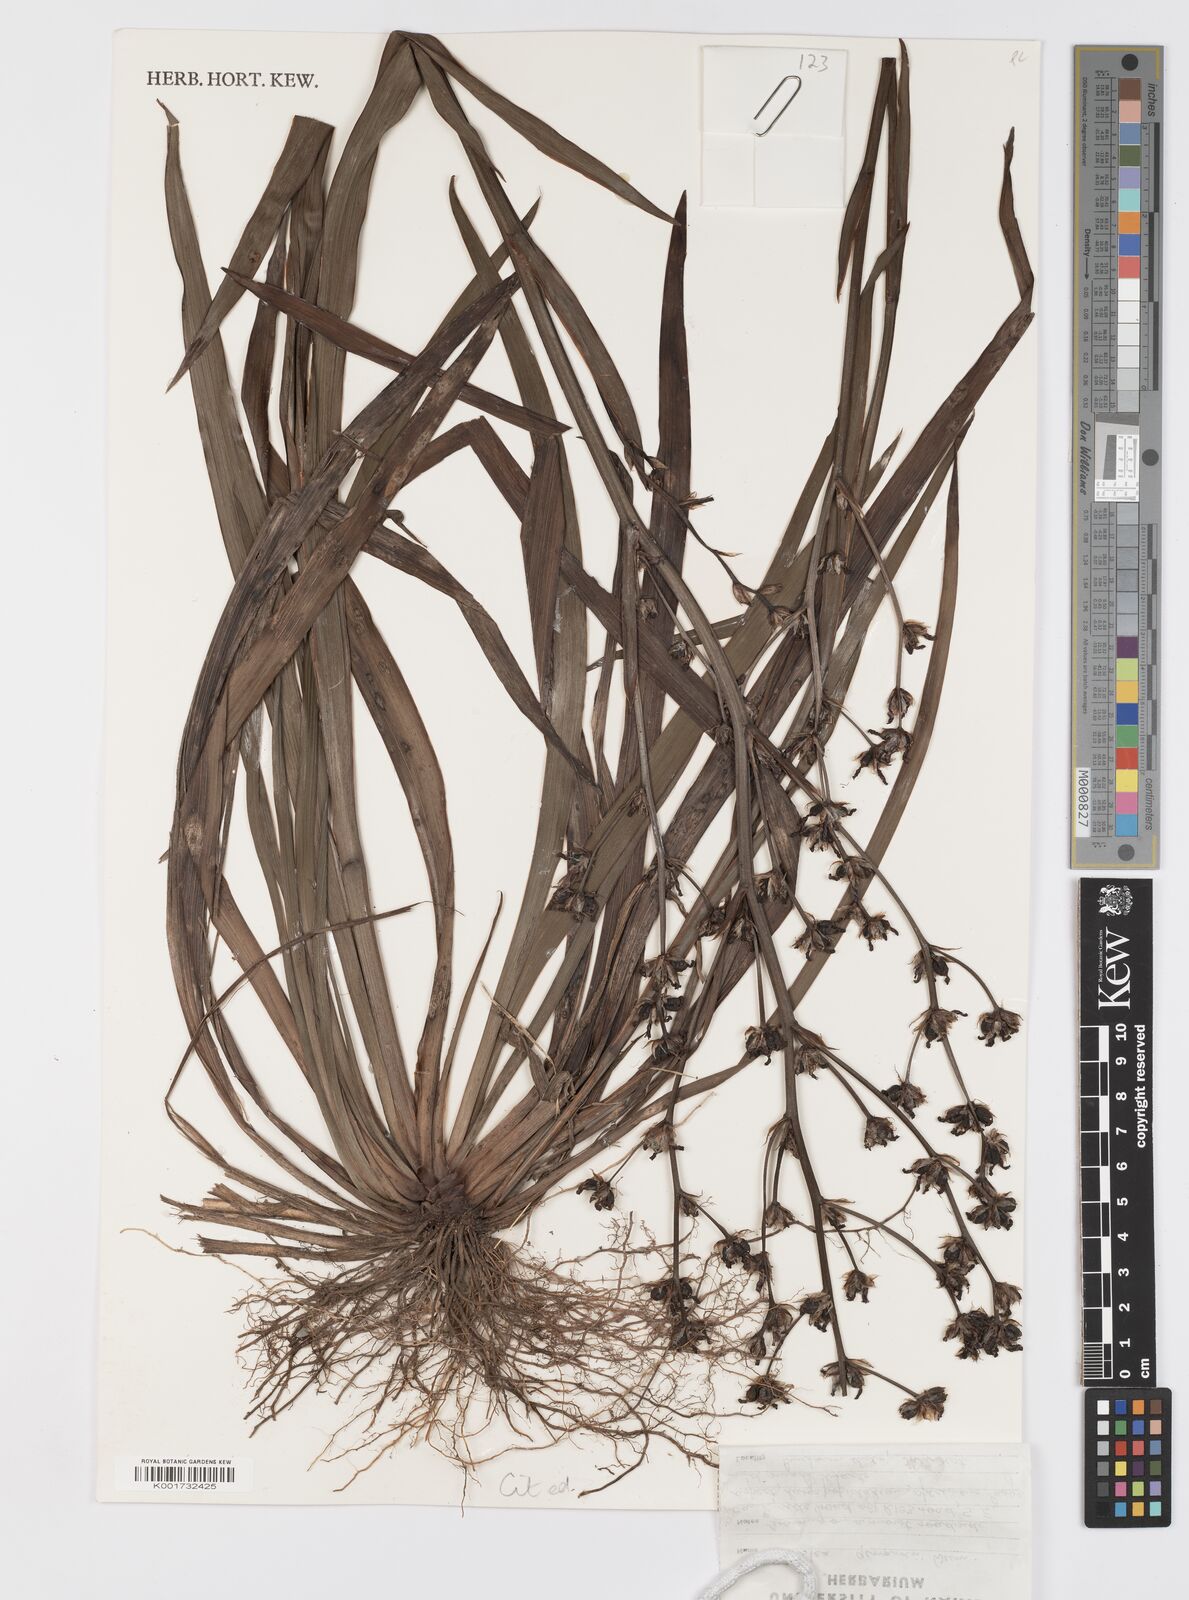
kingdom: Plantae
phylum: Tracheophyta
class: Liliopsida
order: Asparagales
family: Iridaceae
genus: Aristea
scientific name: Aristea compressa
